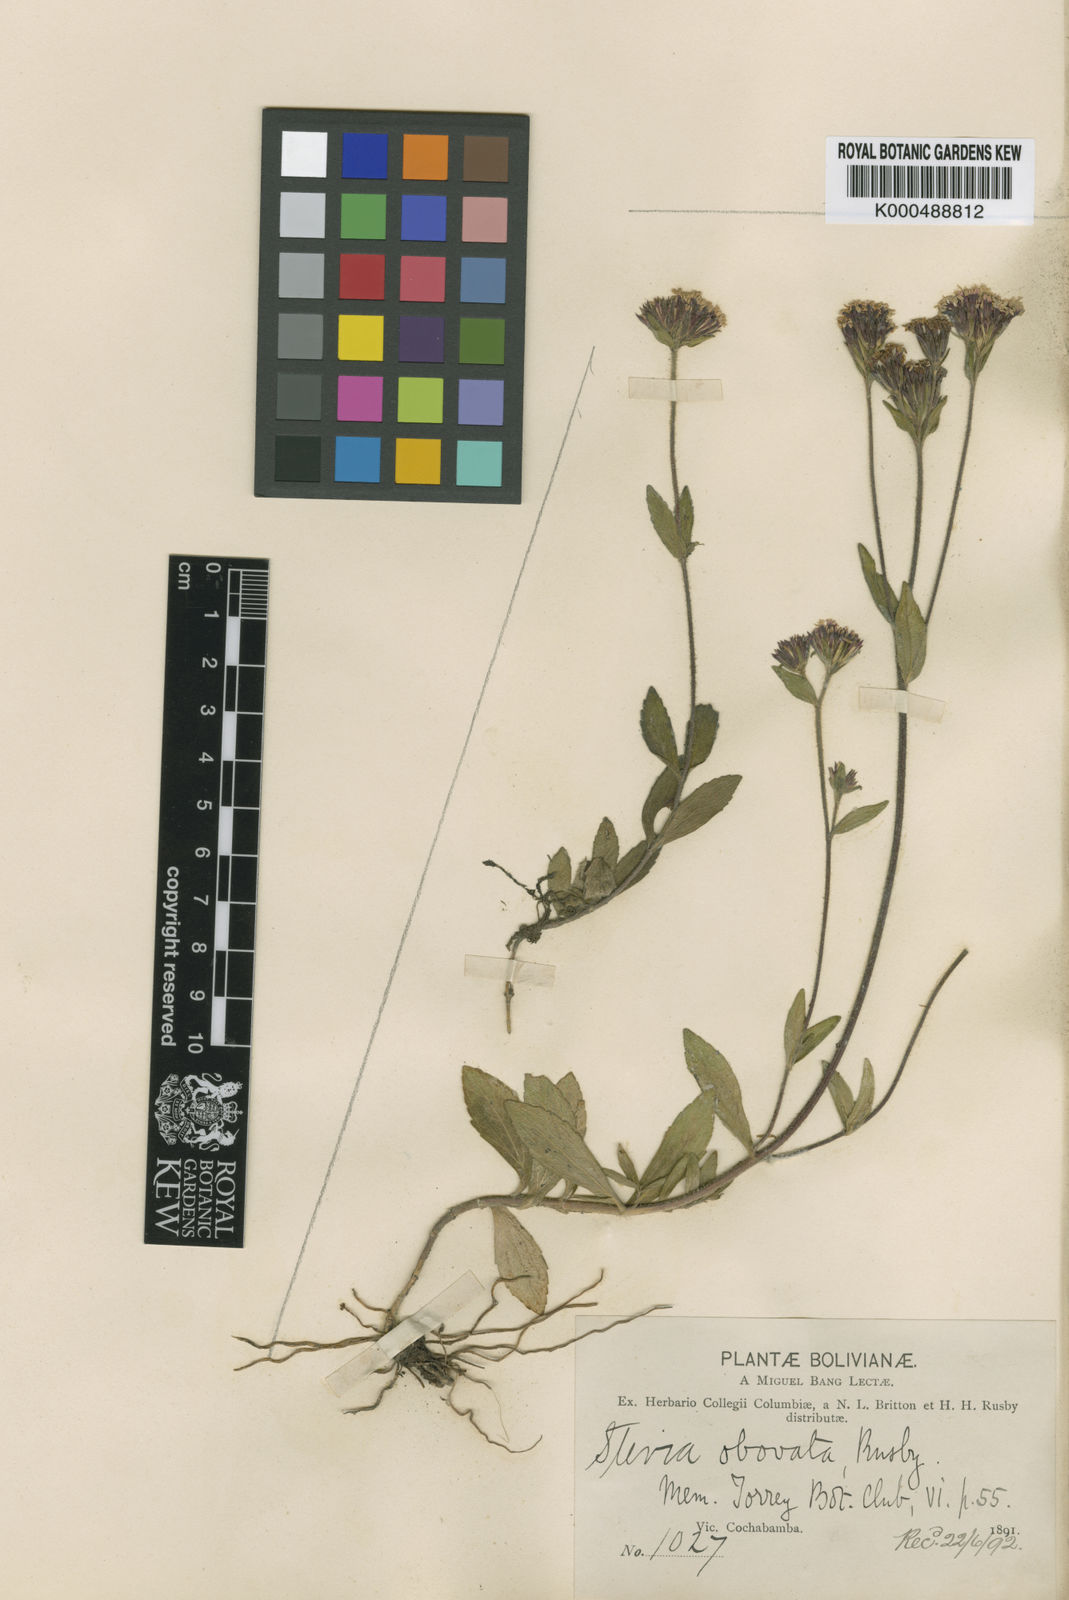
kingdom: Plantae
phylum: Tracheophyta
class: Magnoliopsida
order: Asterales
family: Asteraceae
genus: Stevia
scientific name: Stevia obovata
